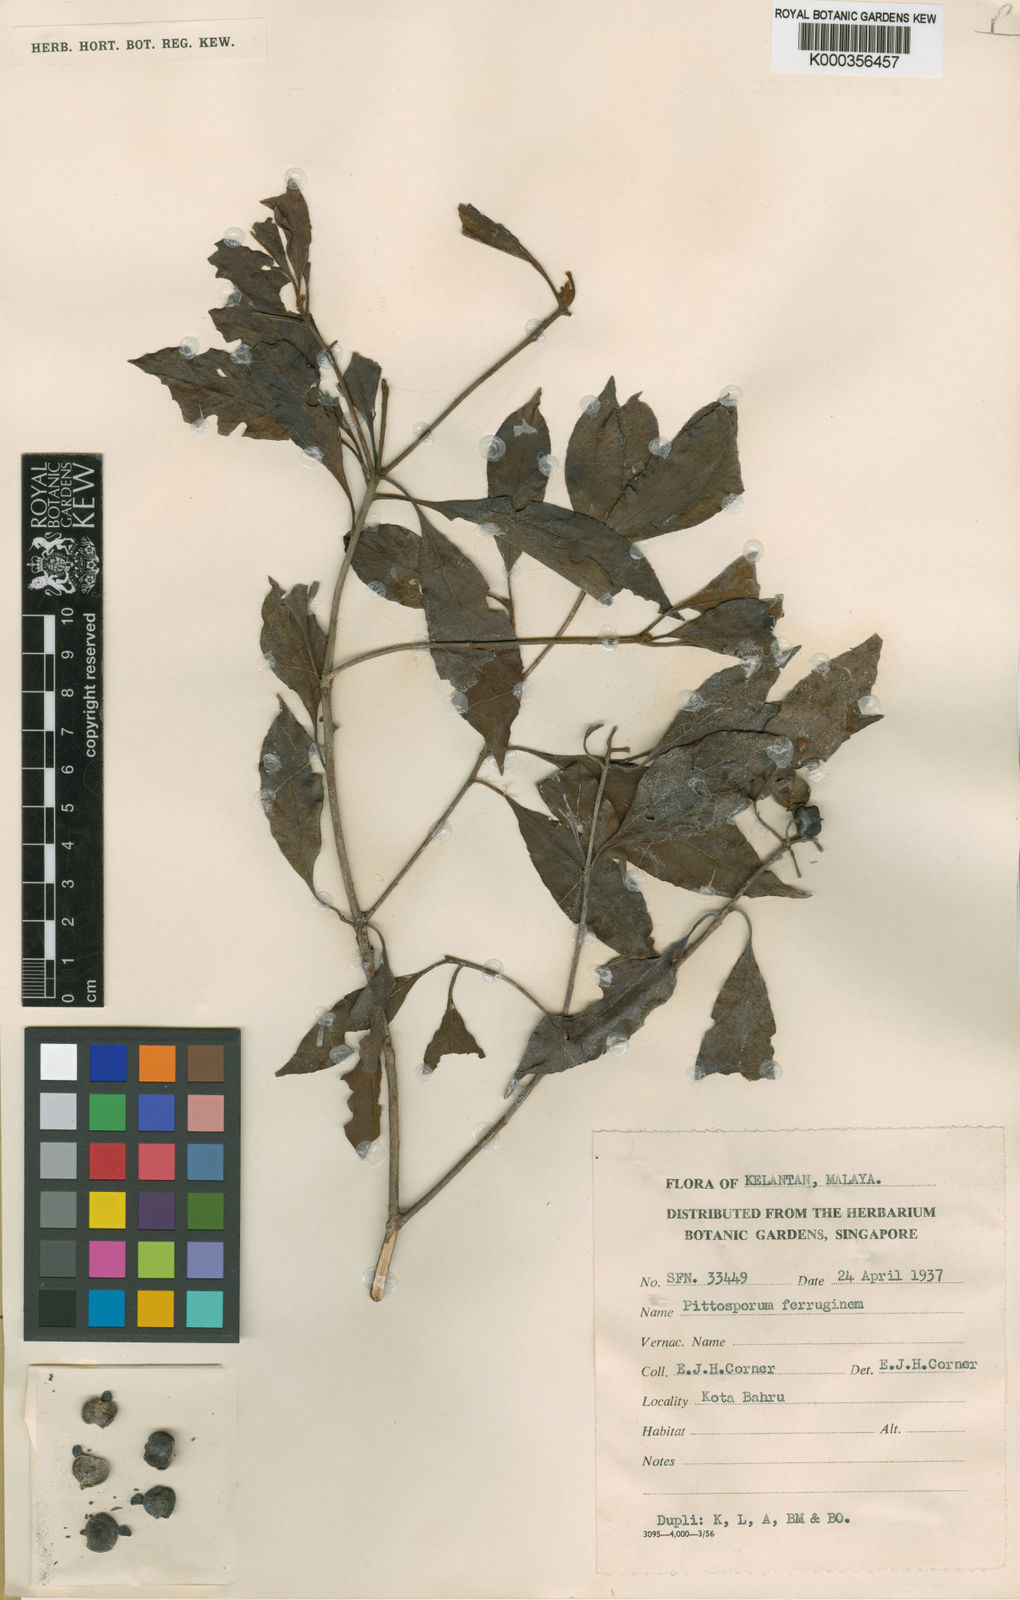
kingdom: Plantae
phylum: Tracheophyta
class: Magnoliopsida
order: Apiales
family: Pittosporaceae
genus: Pittosporum
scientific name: Pittosporum ferrugineum
